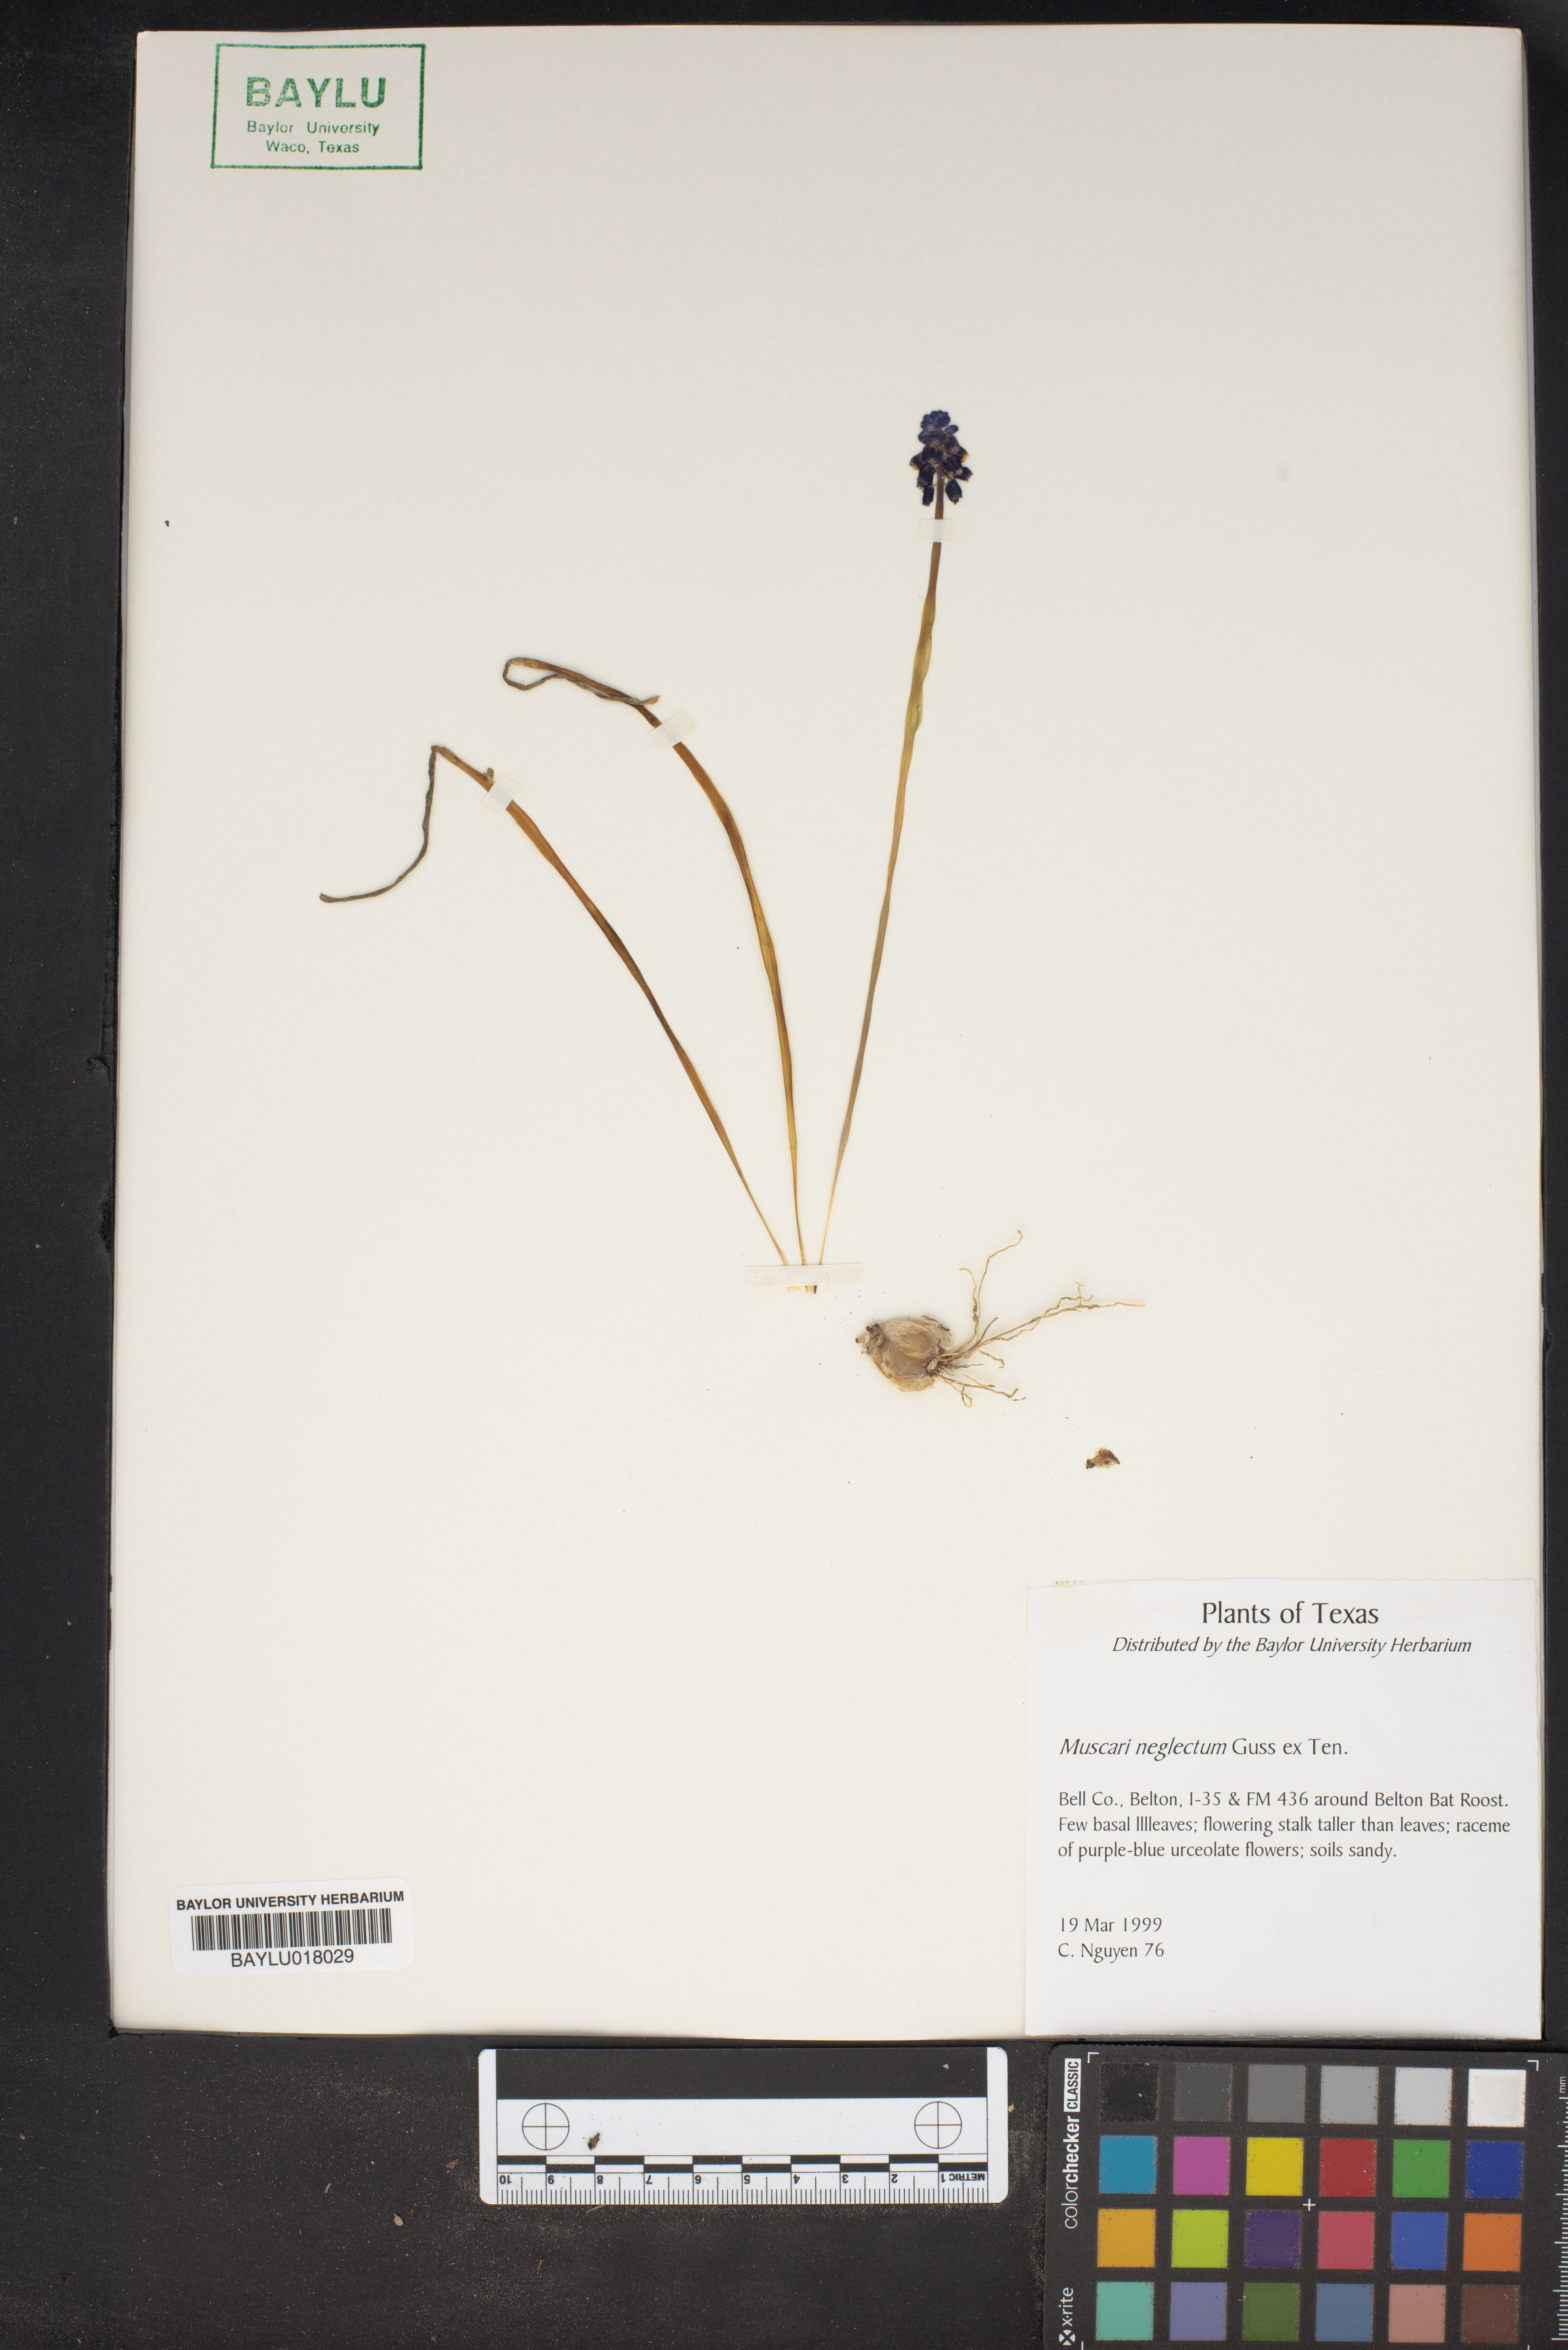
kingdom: Plantae
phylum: Tracheophyta
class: Liliopsida
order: Asparagales
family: Asparagaceae
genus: Muscari
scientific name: Muscari neglectum
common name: Grape-hyacinth
